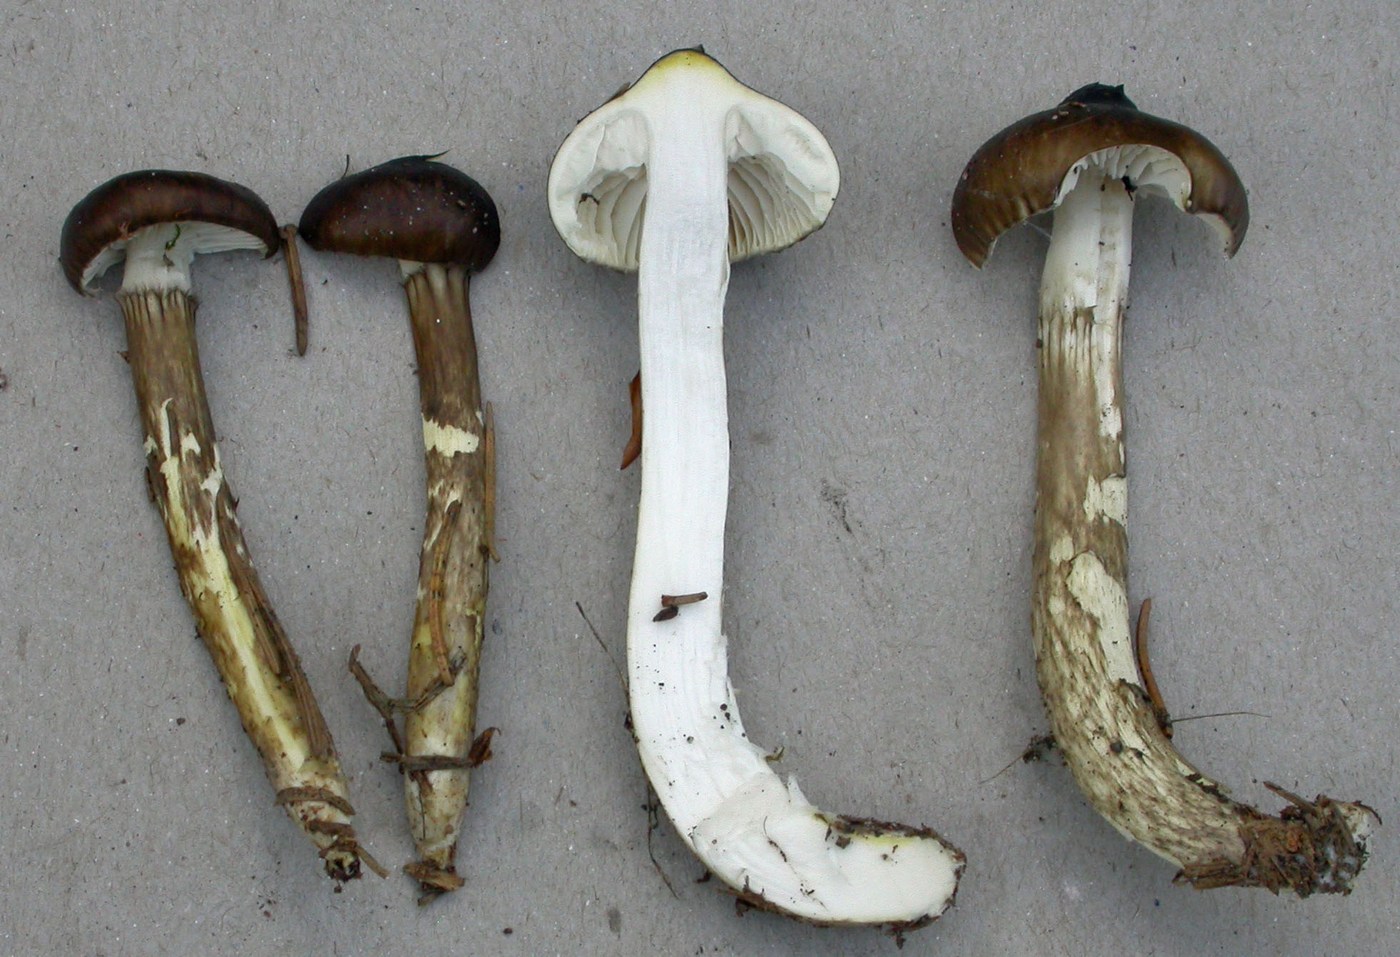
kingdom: Fungi
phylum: Basidiomycota
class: Agaricomycetes
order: Agaricales
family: Hygrophoraceae
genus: Hygrophorus
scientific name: Hygrophorus olivaceoalbus
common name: hvidbrun sneglehat
